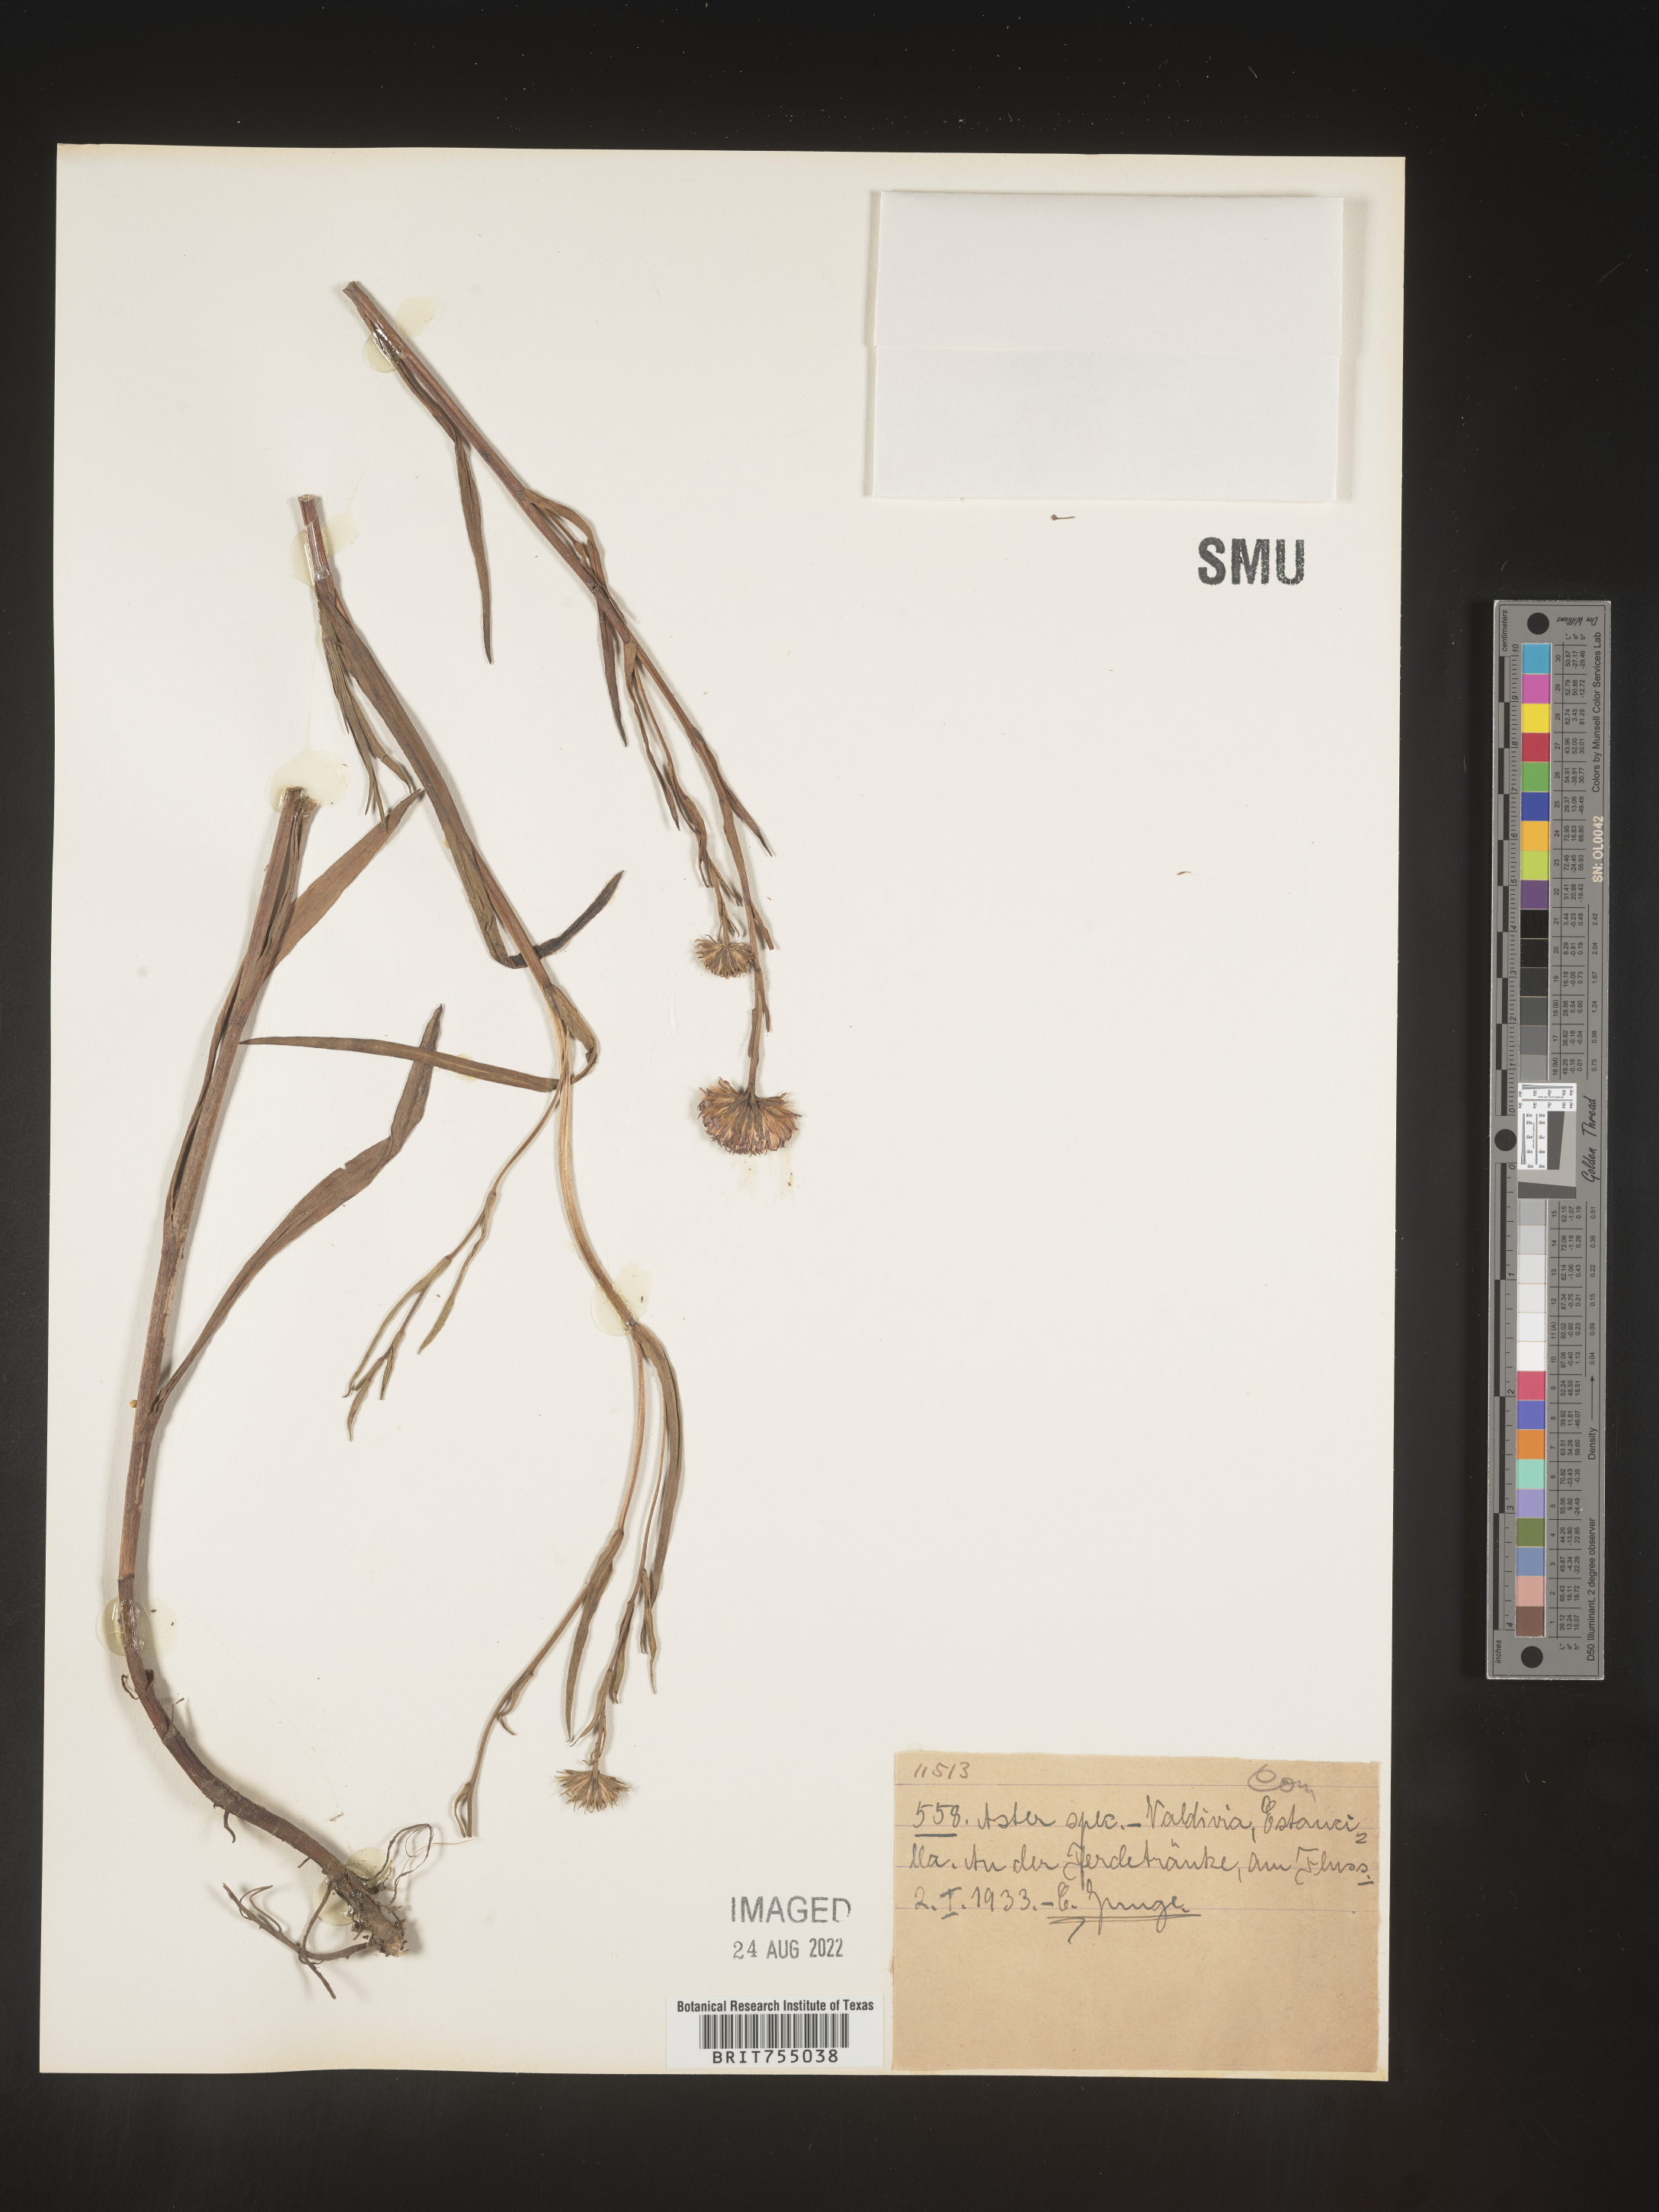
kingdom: Plantae
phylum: Tracheophyta
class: Magnoliopsida
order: Asterales
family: Asteraceae
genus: Symphyotrichum
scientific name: Symphyotrichum
